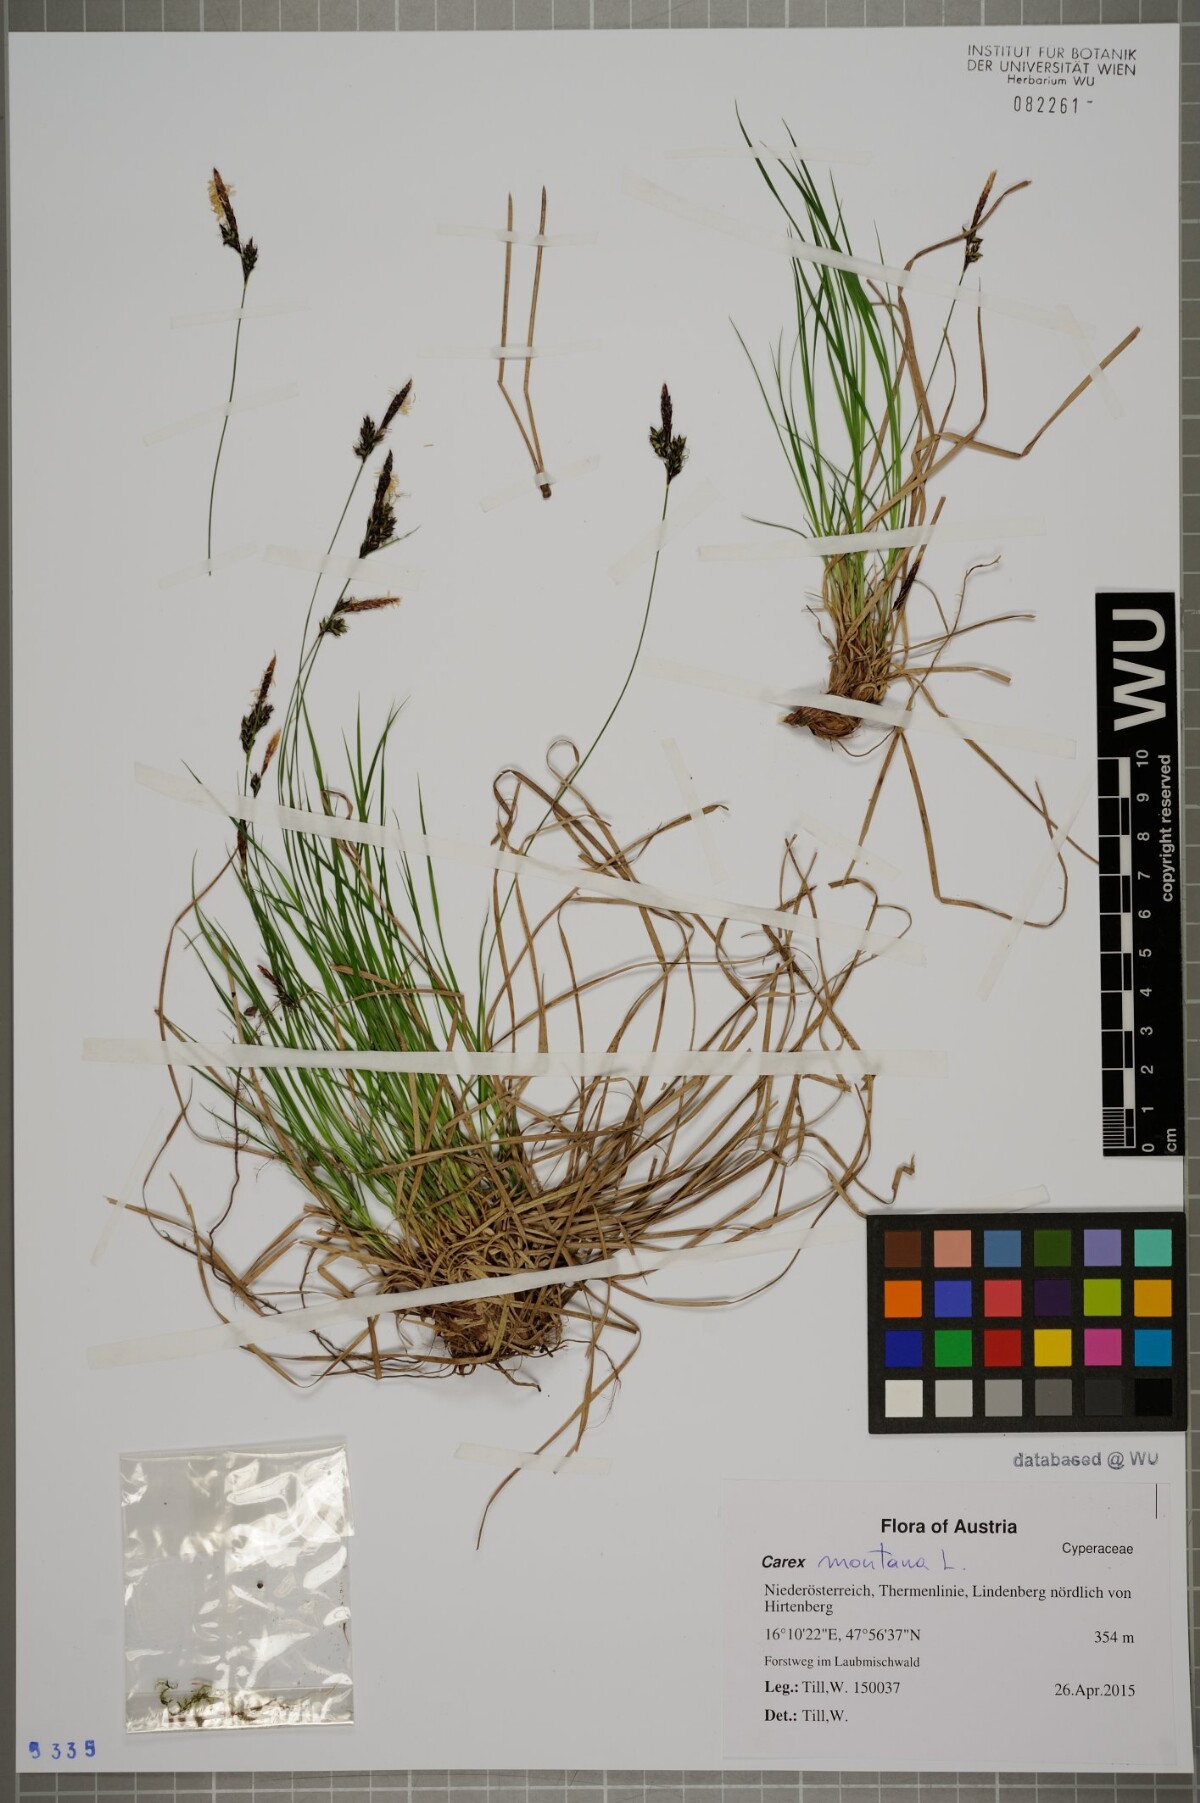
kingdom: Plantae
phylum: Tracheophyta
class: Liliopsida
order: Poales
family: Cyperaceae
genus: Carex
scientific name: Carex montana
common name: Soft-leaved sedge
